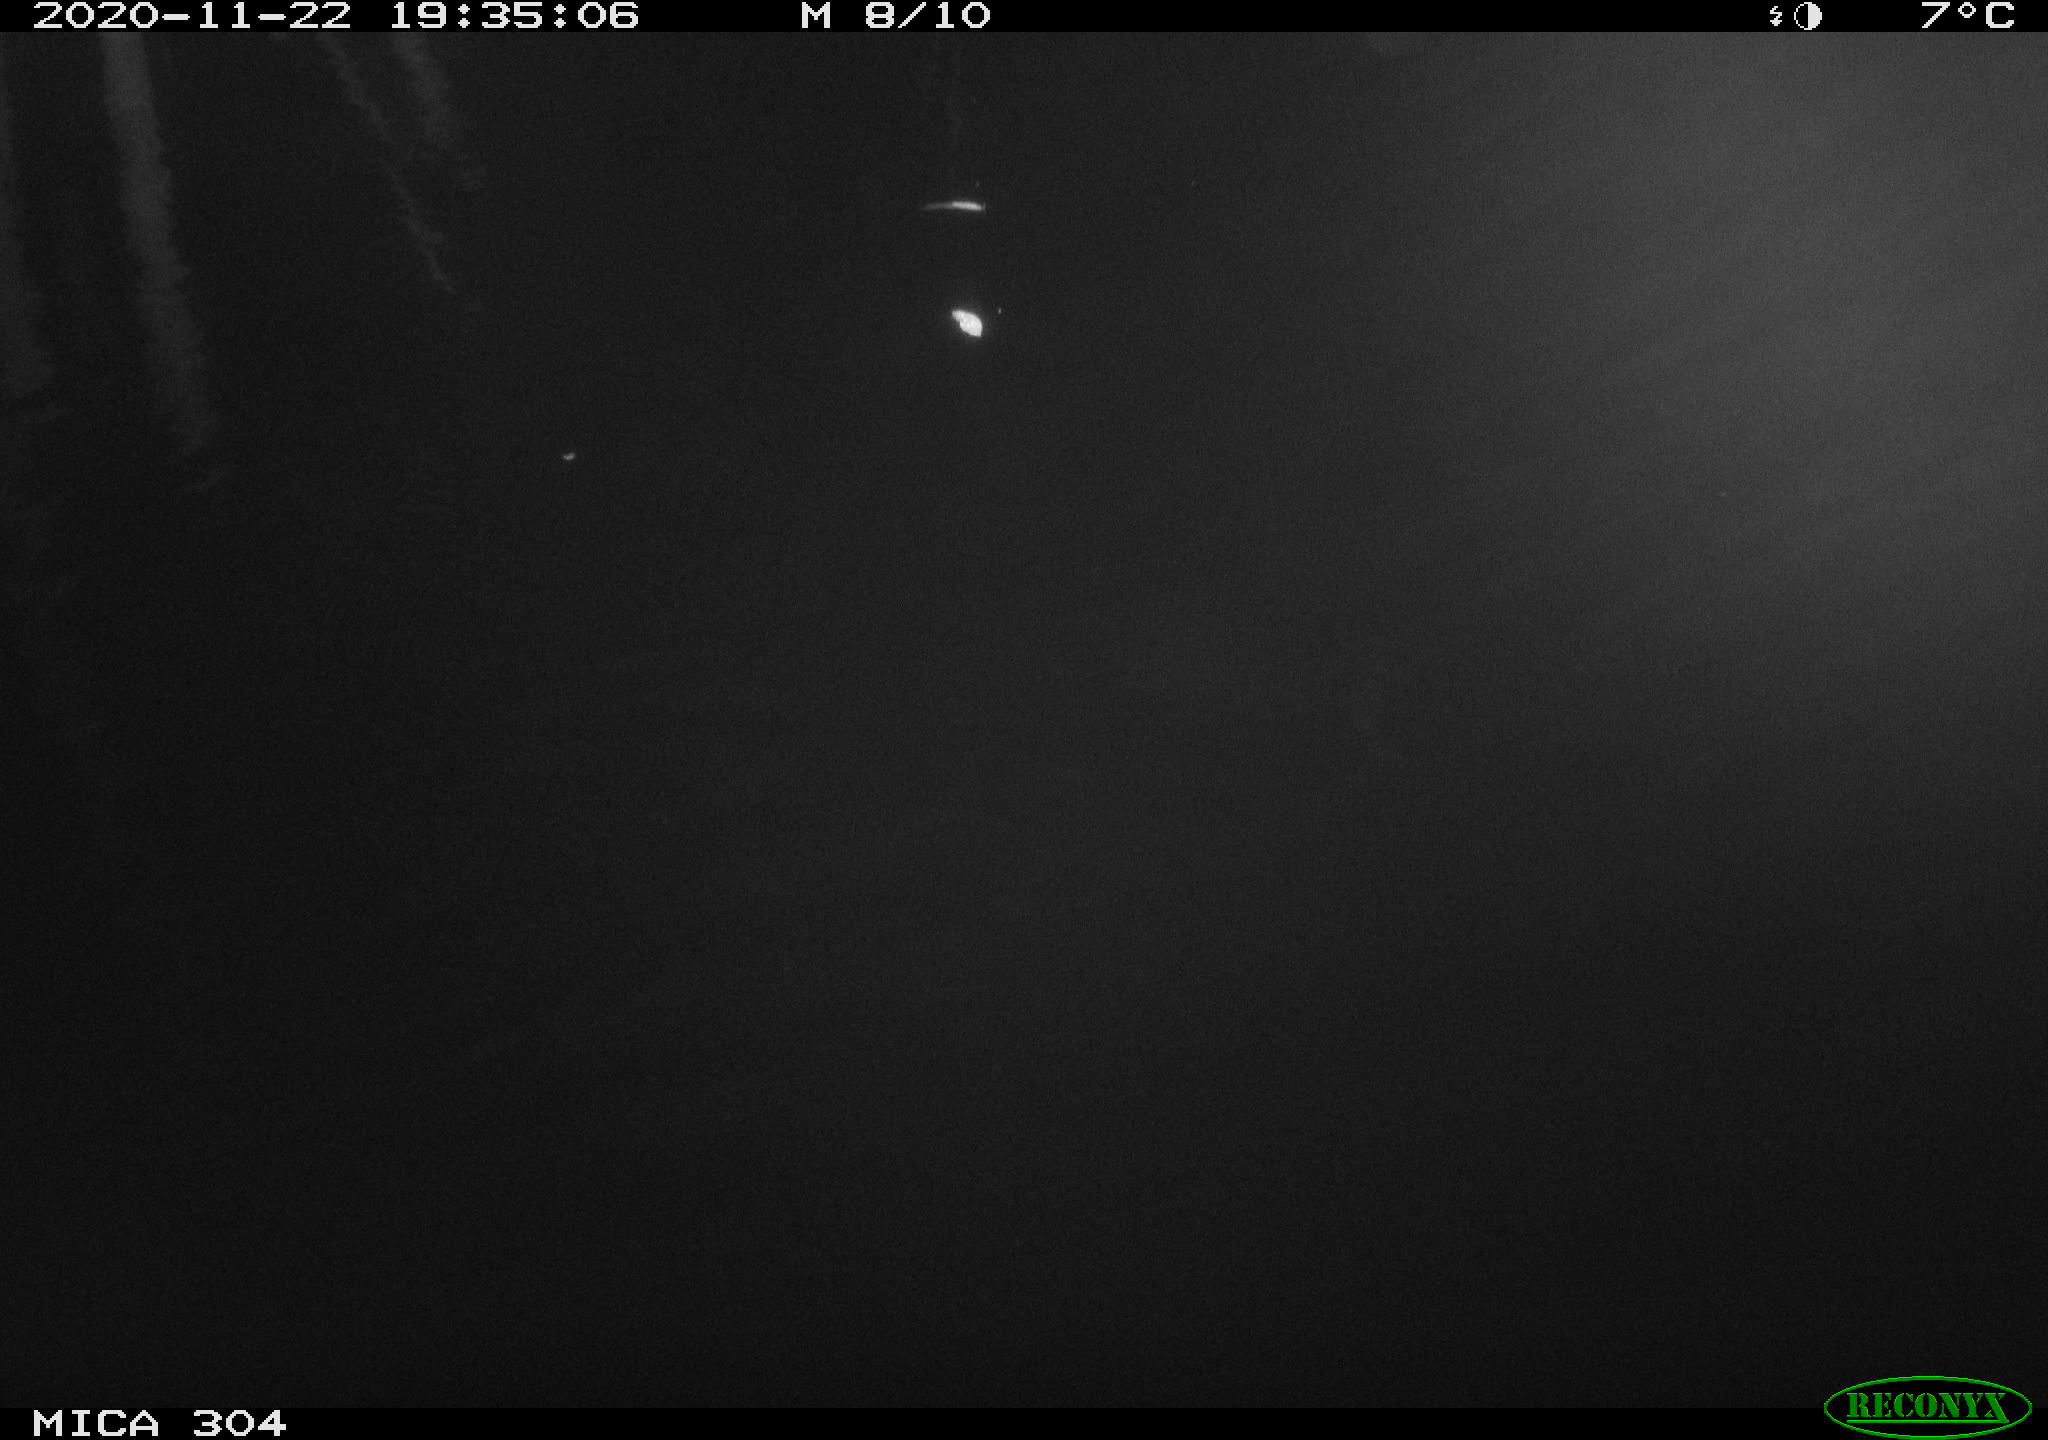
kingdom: Animalia
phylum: Chordata
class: Mammalia
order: Rodentia
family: Muridae
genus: Rattus
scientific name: Rattus norvegicus
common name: Brown rat
